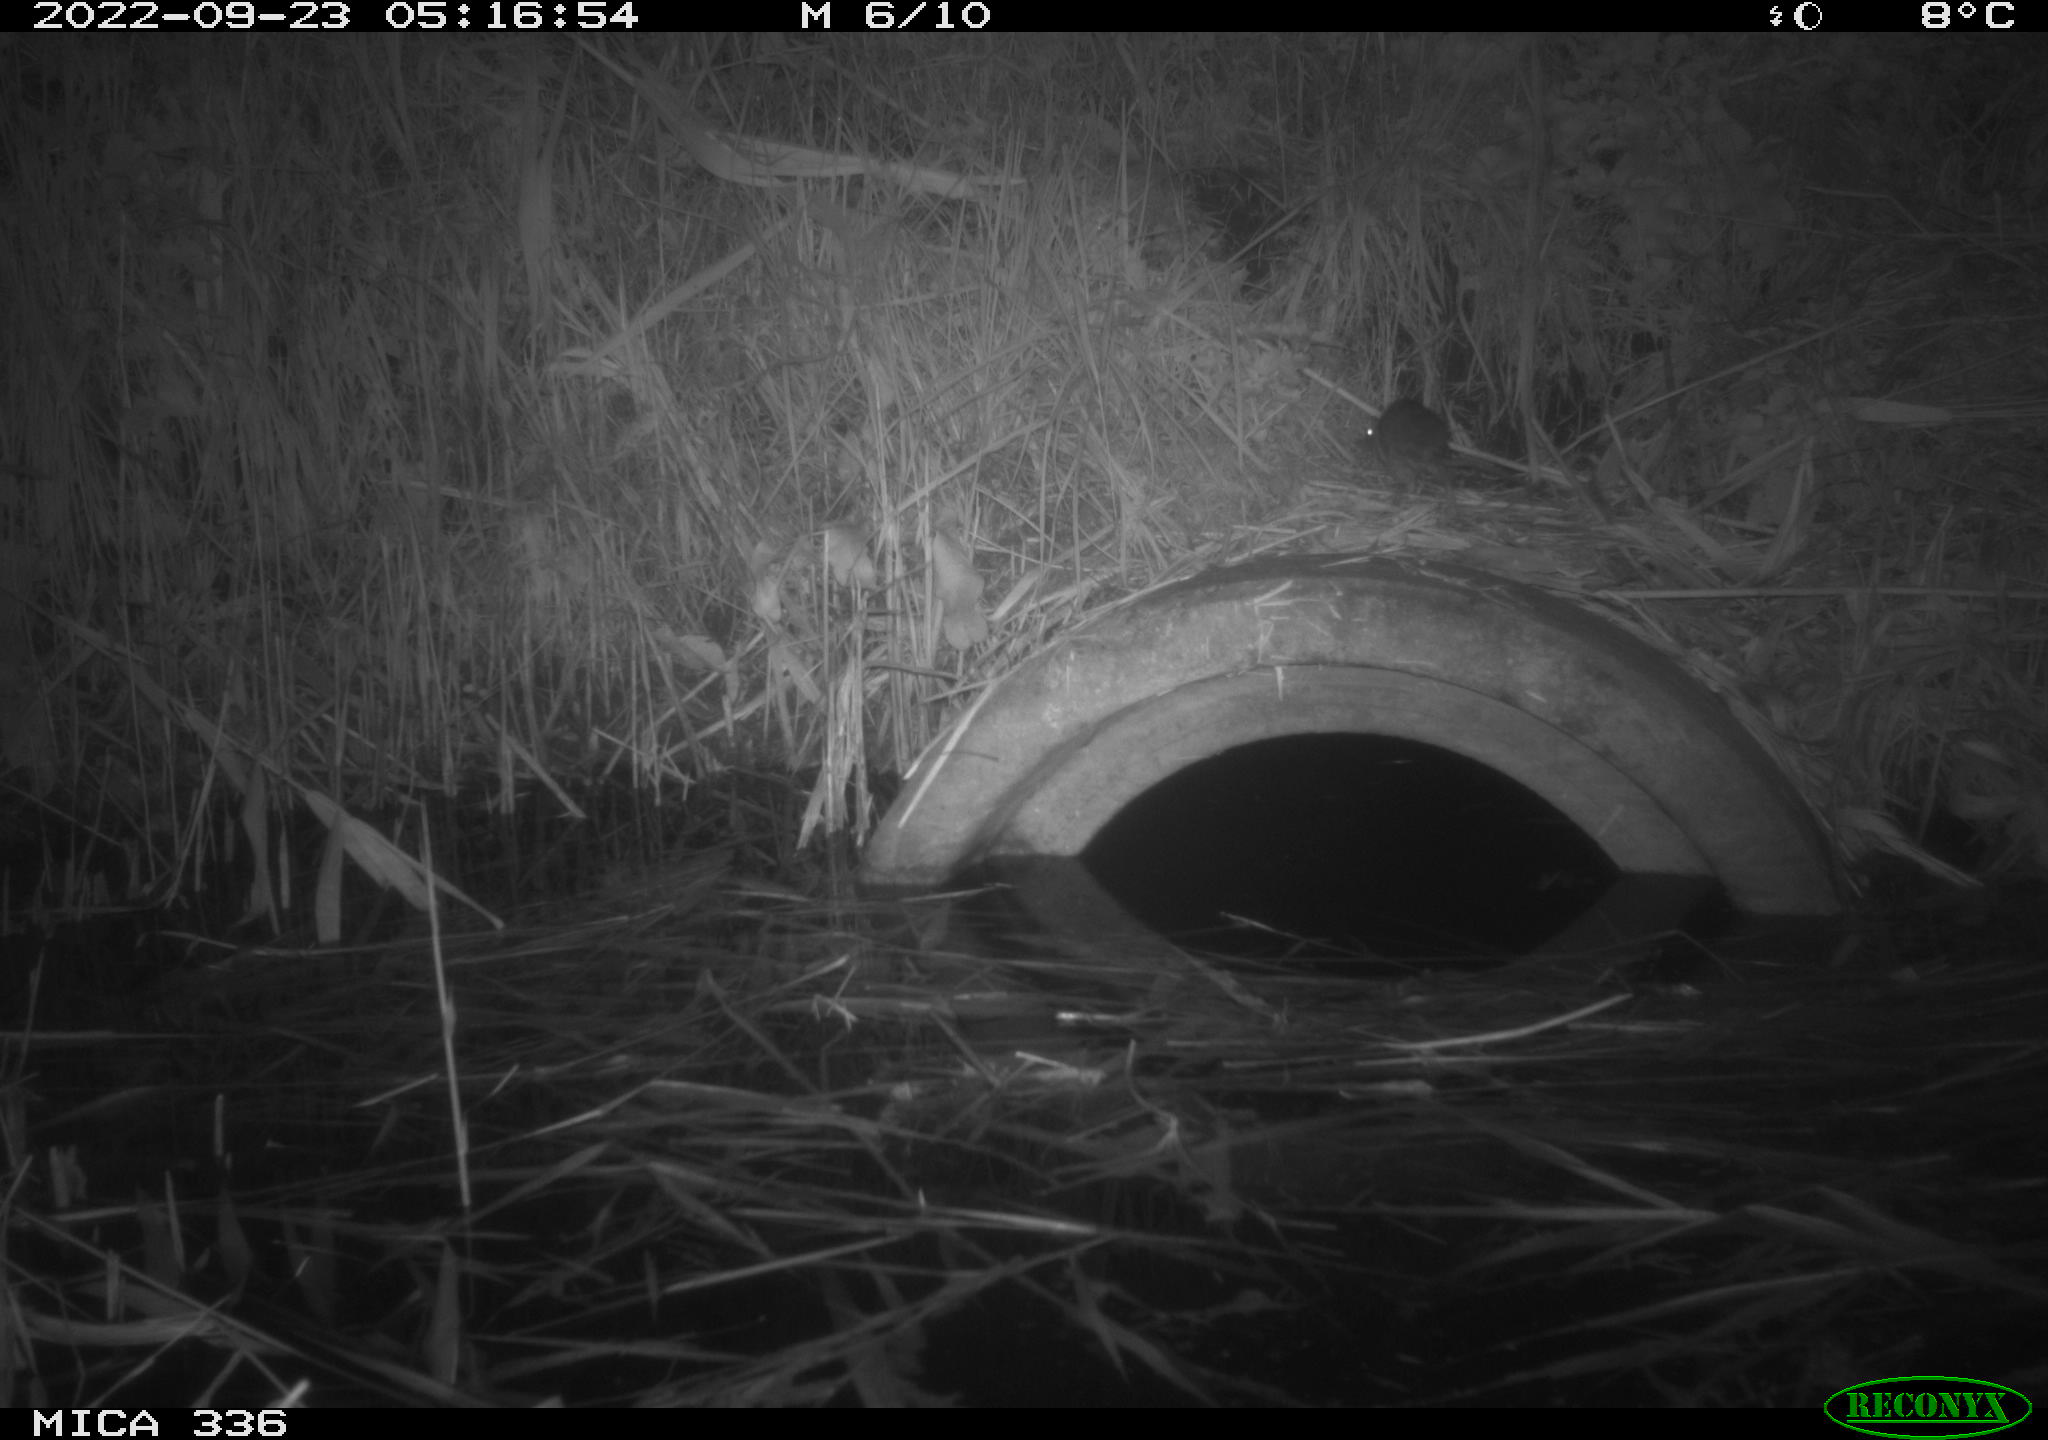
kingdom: Animalia
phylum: Chordata
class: Mammalia
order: Rodentia
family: Muridae
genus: Rattus
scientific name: Rattus norvegicus
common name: Brown rat
